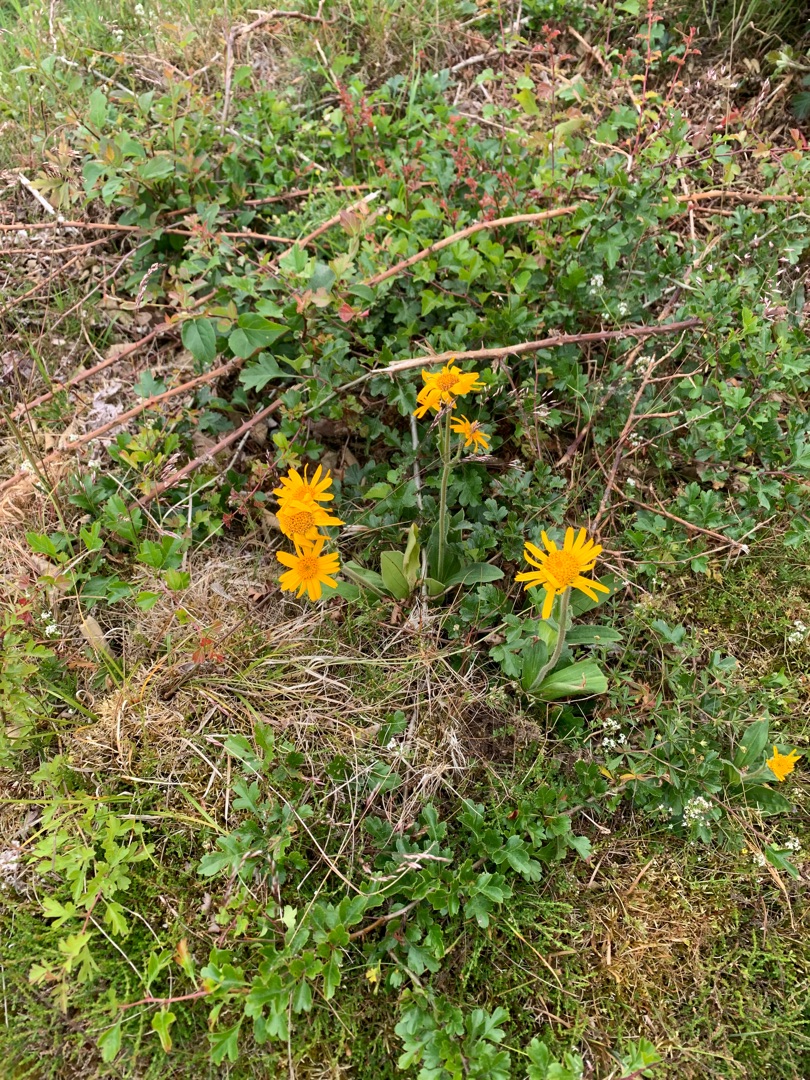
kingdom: Plantae
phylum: Tracheophyta
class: Magnoliopsida
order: Asterales
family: Asteraceae
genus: Arnica
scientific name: Arnica montana
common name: Guldblomme
